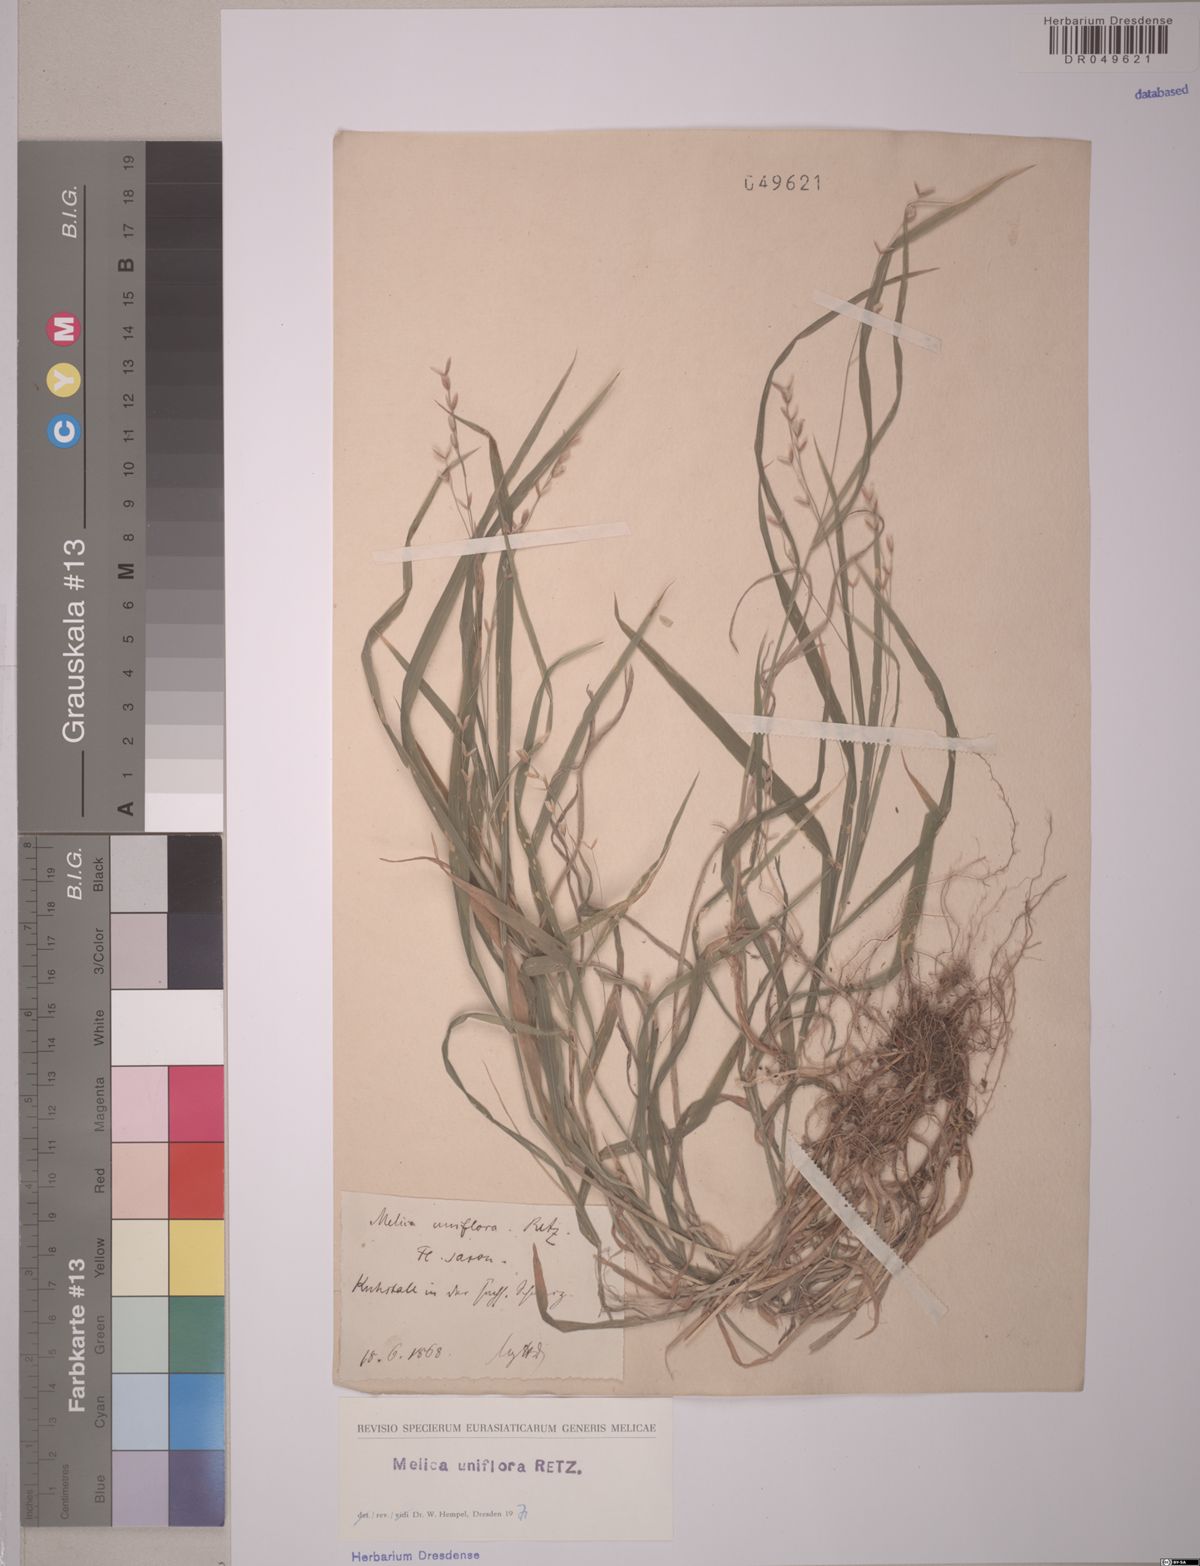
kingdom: Plantae
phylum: Tracheophyta
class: Liliopsida
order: Poales
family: Poaceae
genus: Melica
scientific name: Melica uniflora
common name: Wood melick
